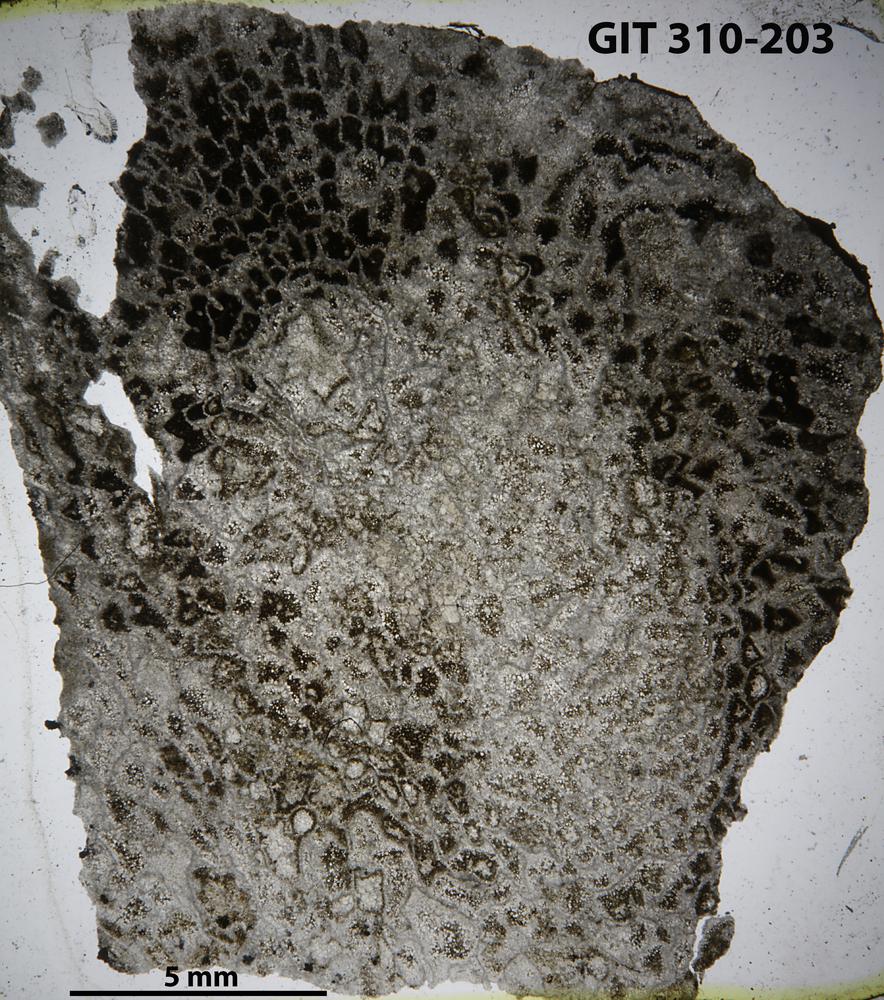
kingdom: Animalia
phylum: Porifera
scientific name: Porifera
